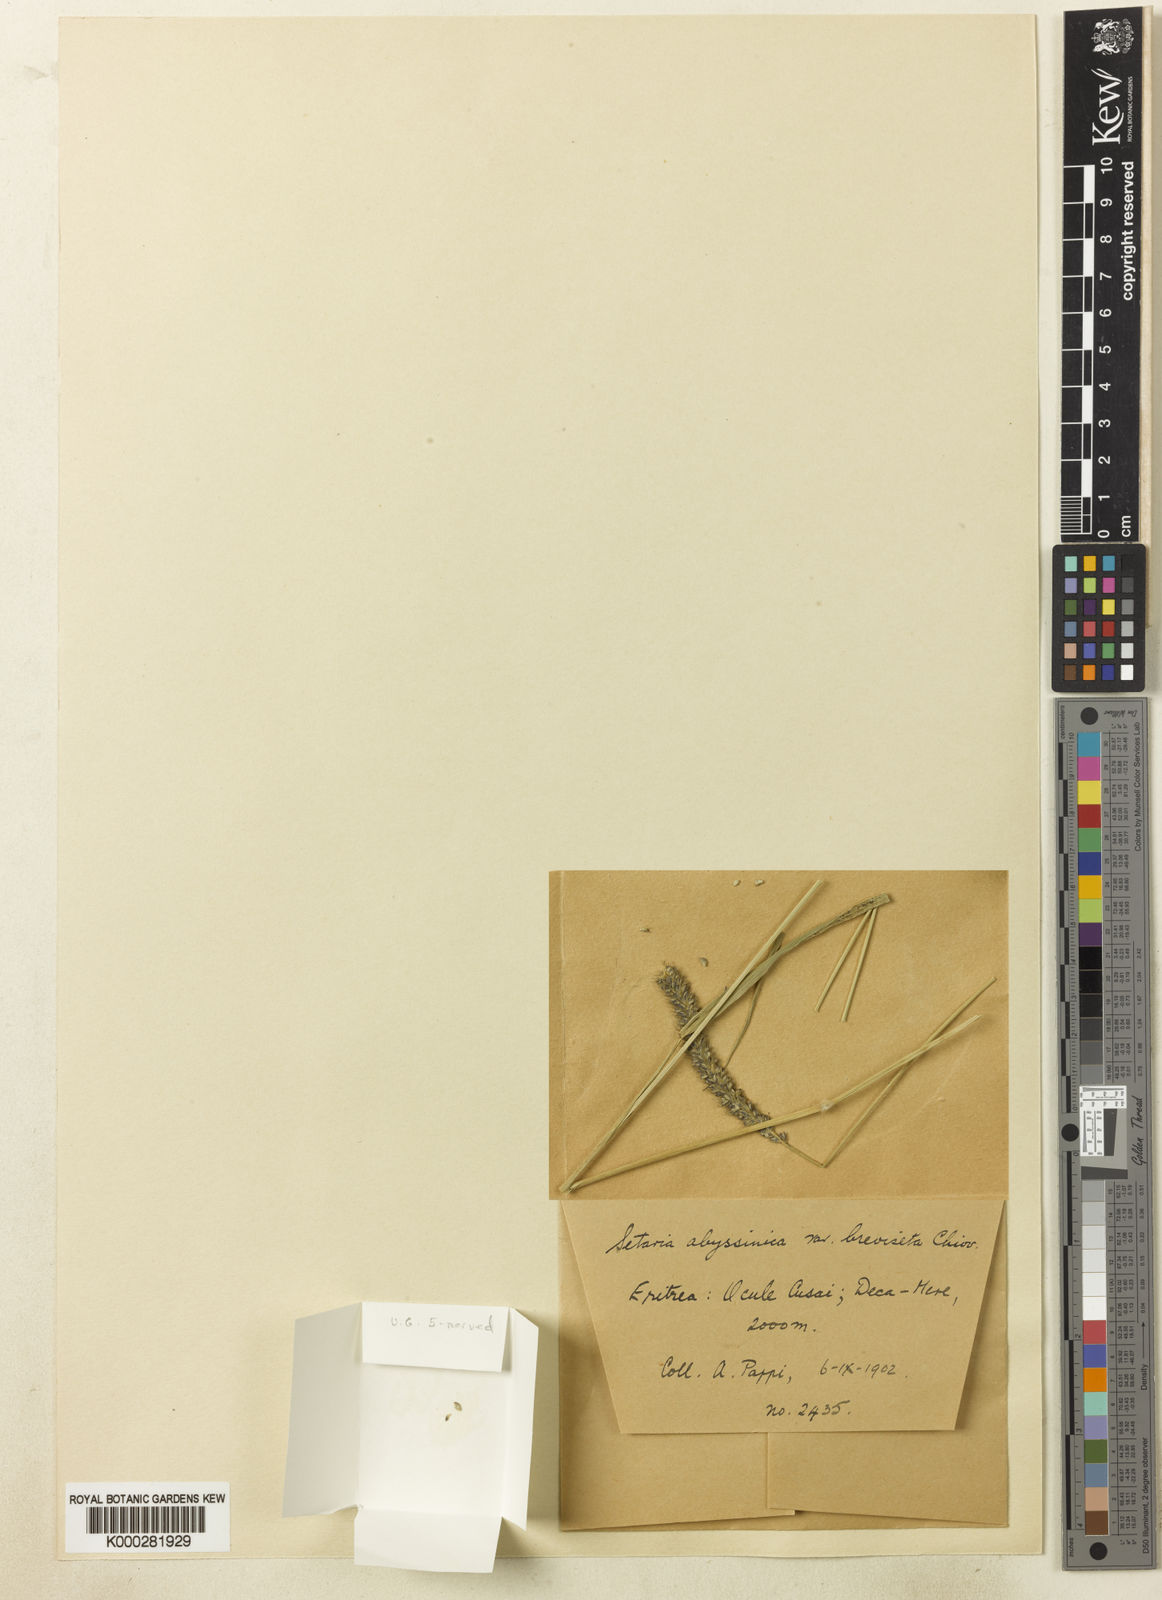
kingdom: Plantae
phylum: Tracheophyta
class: Liliopsida
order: Poales
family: Poaceae
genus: Setaria
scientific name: Setaria incrassata
